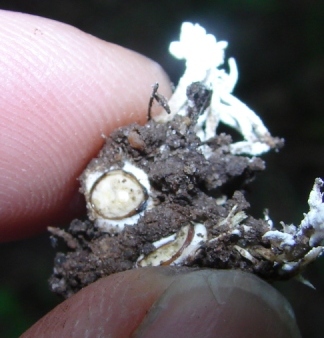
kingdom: Fungi
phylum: Ascomycota
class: Sordariomycetes
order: Hypocreales
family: Cordycipitaceae
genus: Cordyceps
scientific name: Cordyceps farinosa
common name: melet snyltekølle
